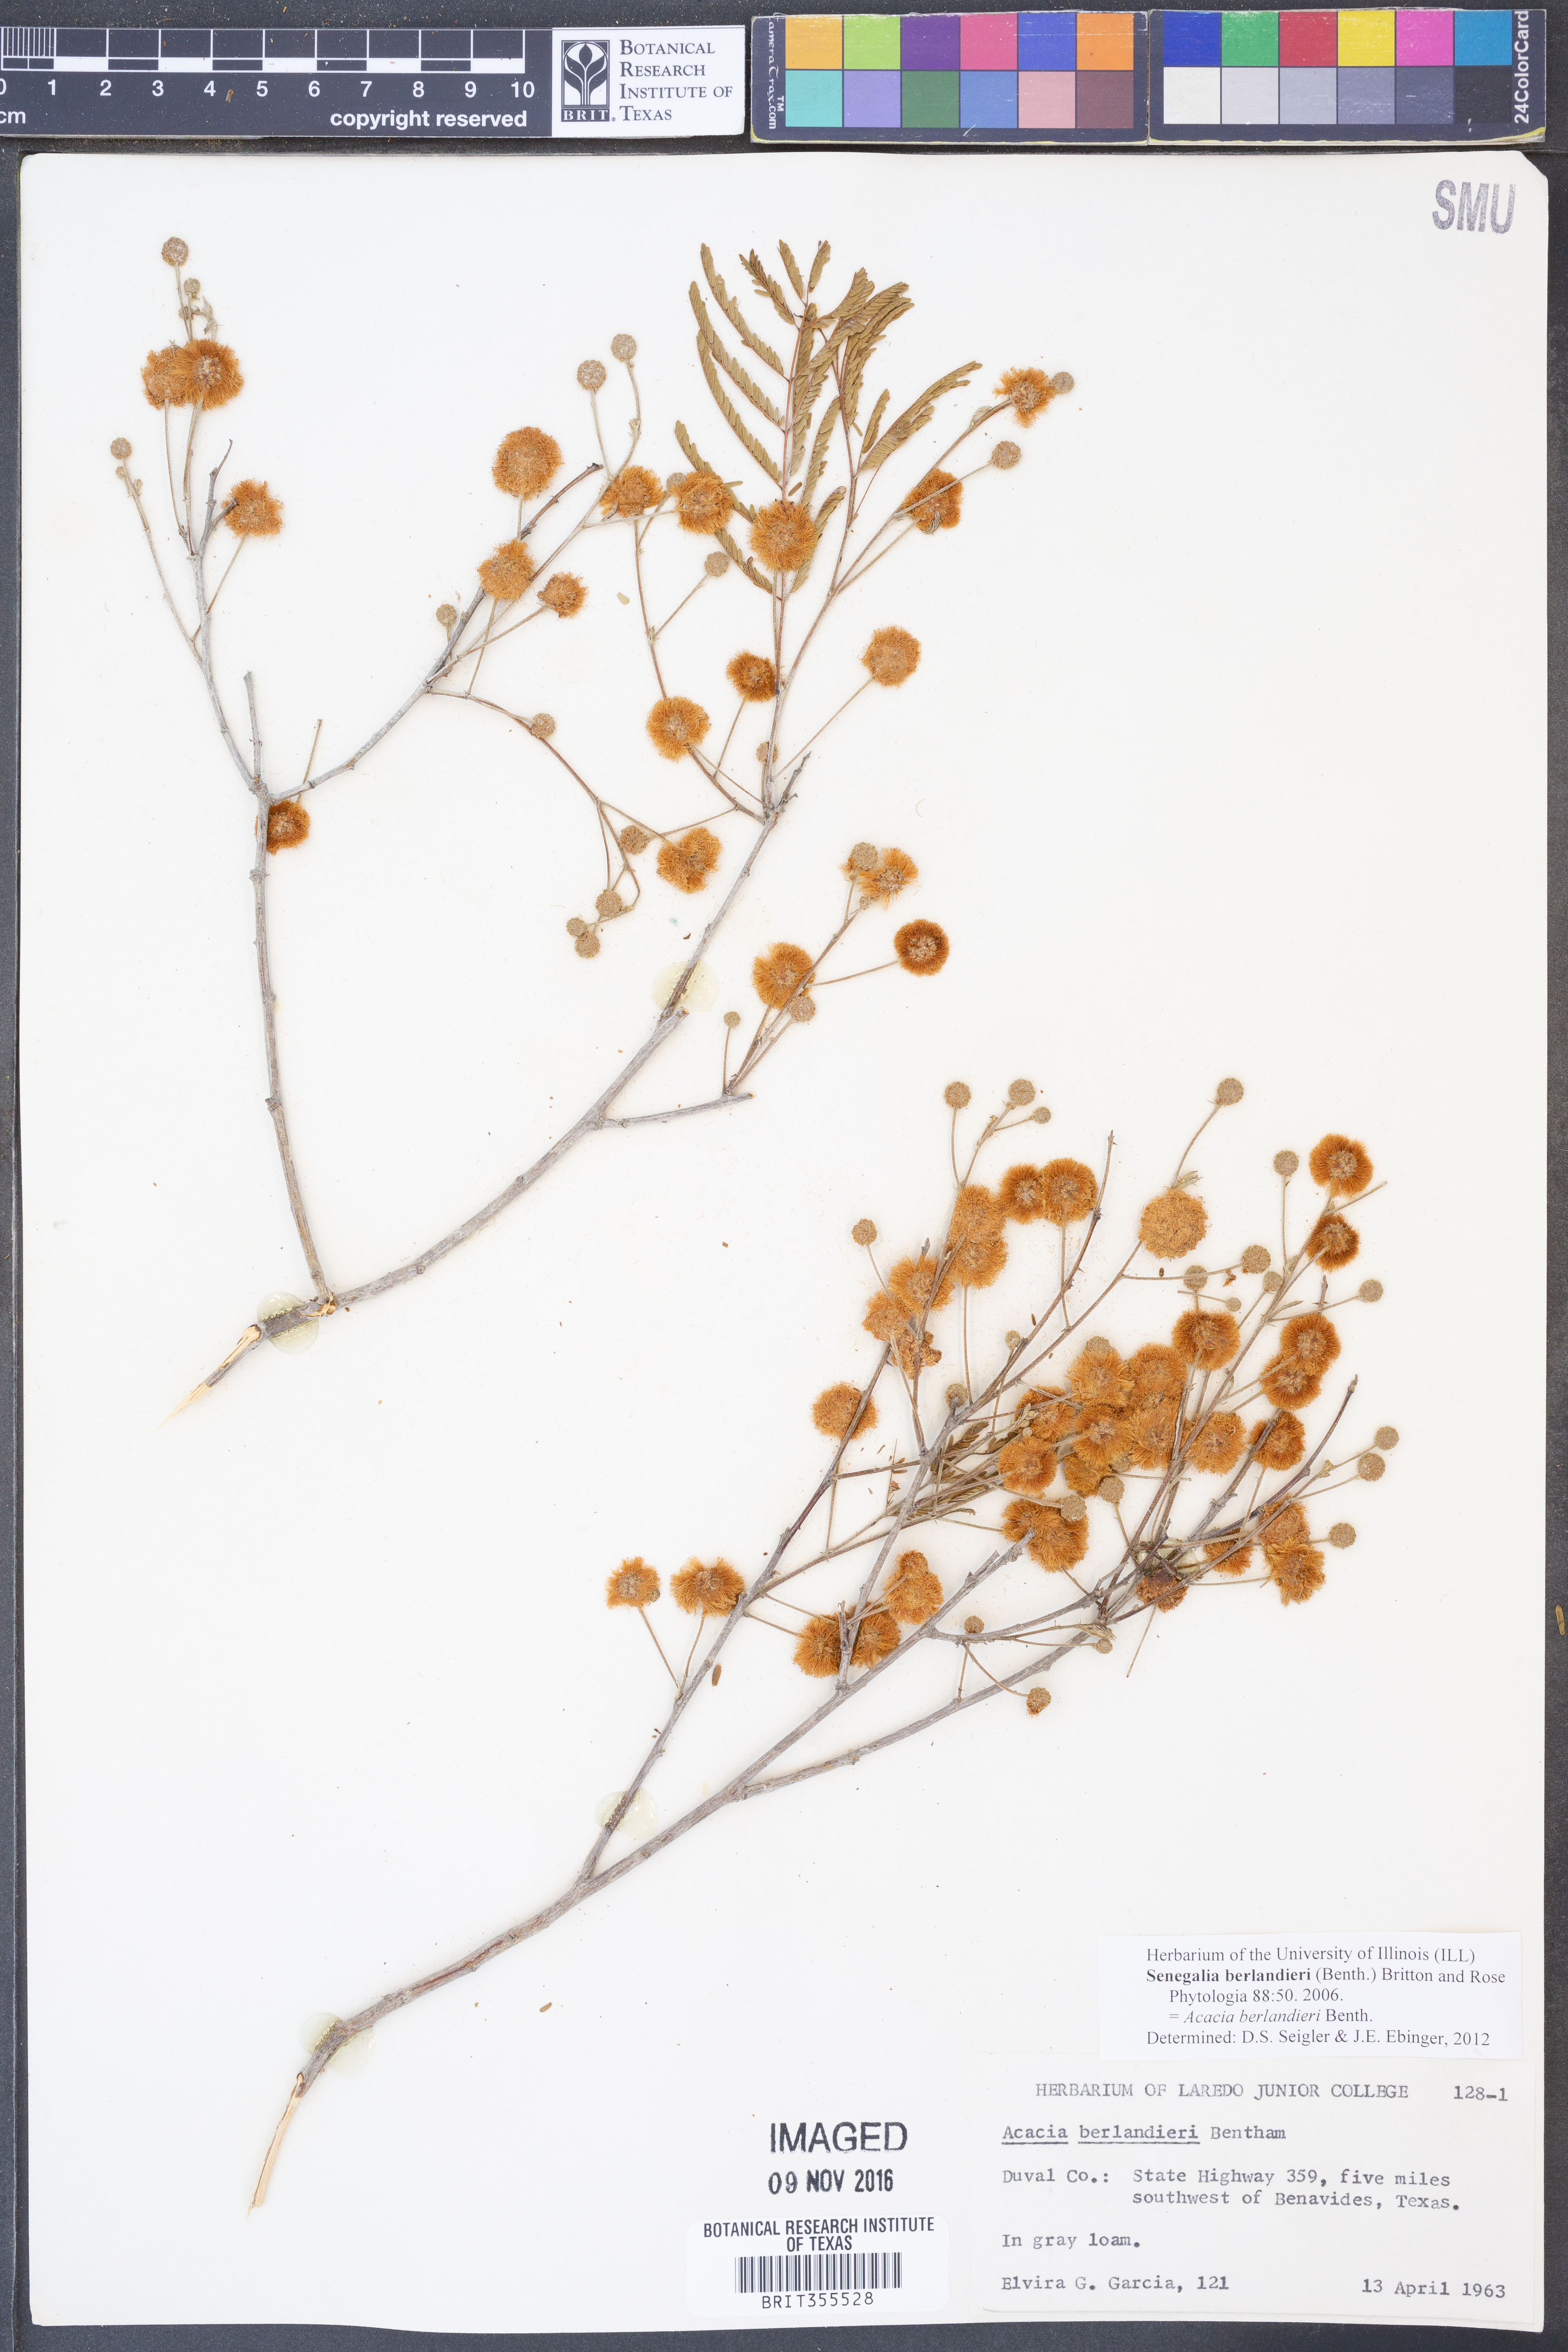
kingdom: Plantae
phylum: Tracheophyta
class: Magnoliopsida
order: Fabales
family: Fabaceae
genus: Senegalia
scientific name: Senegalia berlandieri
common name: Berlandier acacia
